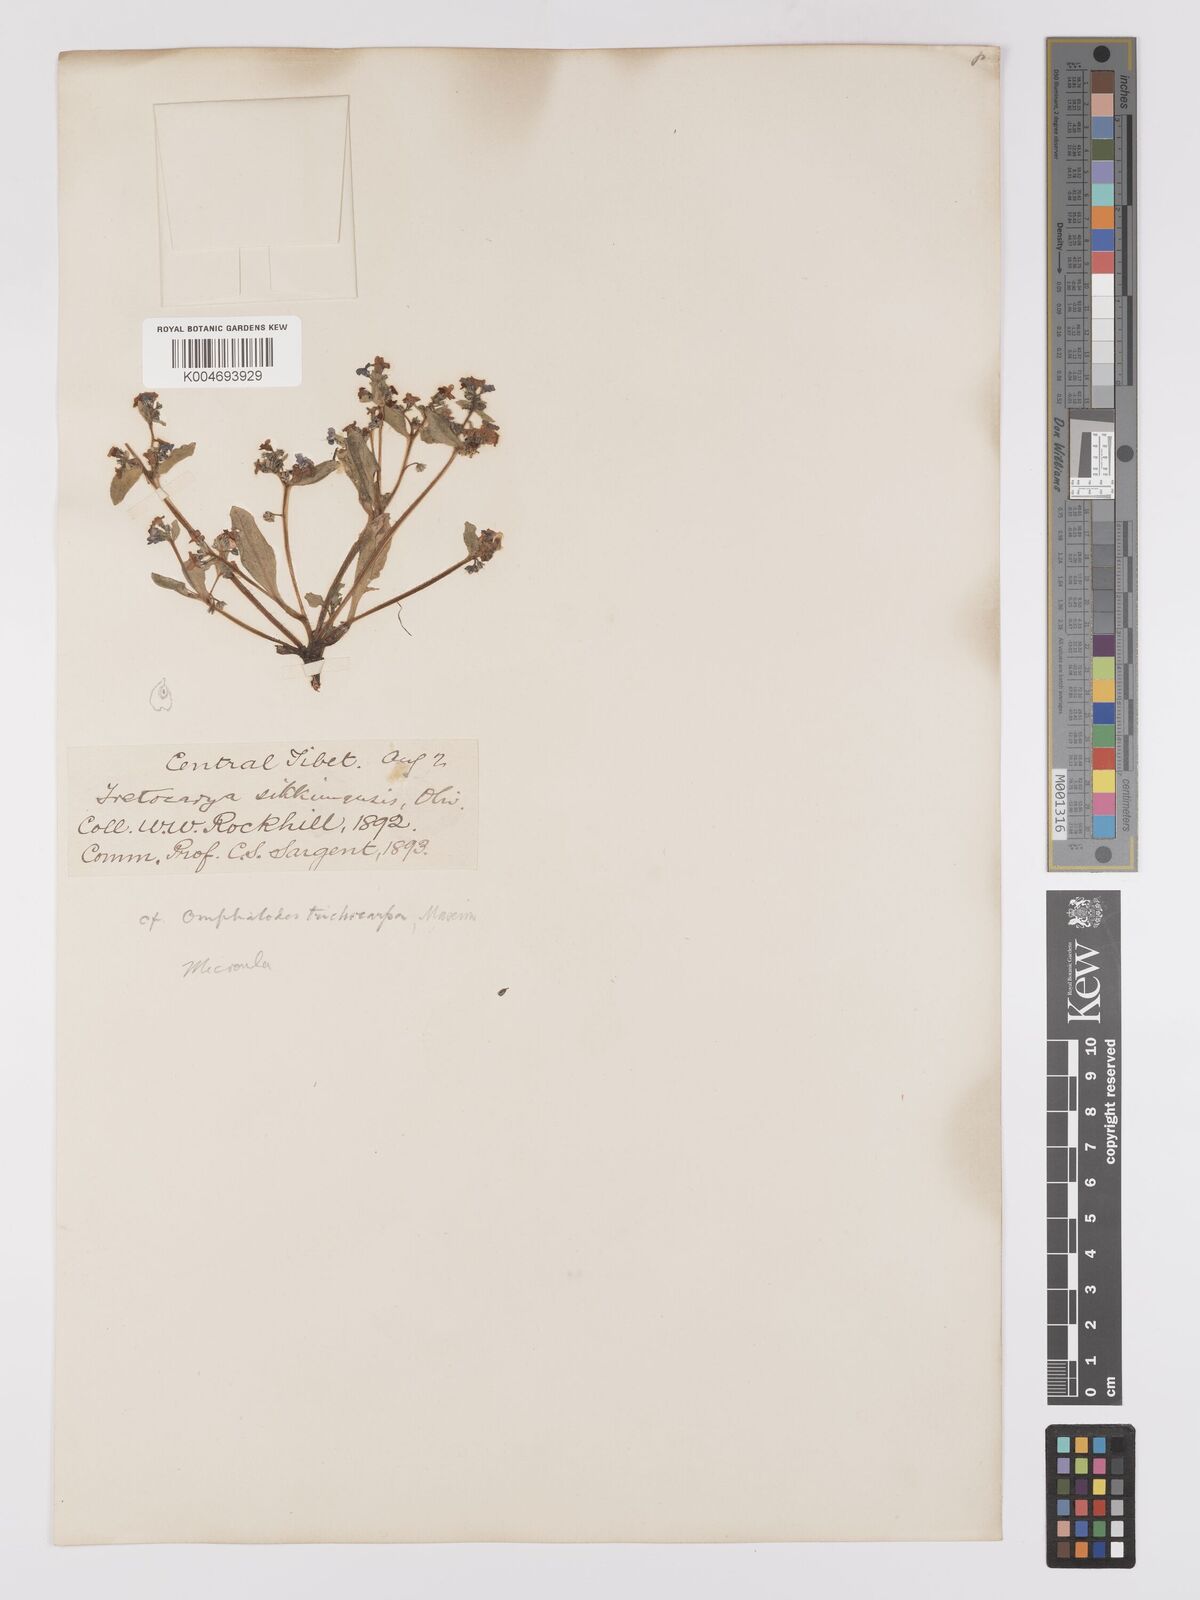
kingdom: Plantae
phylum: Tracheophyta
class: Magnoliopsida
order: Boraginales
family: Boraginaceae
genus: Microula
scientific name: Microula sikkimensis
